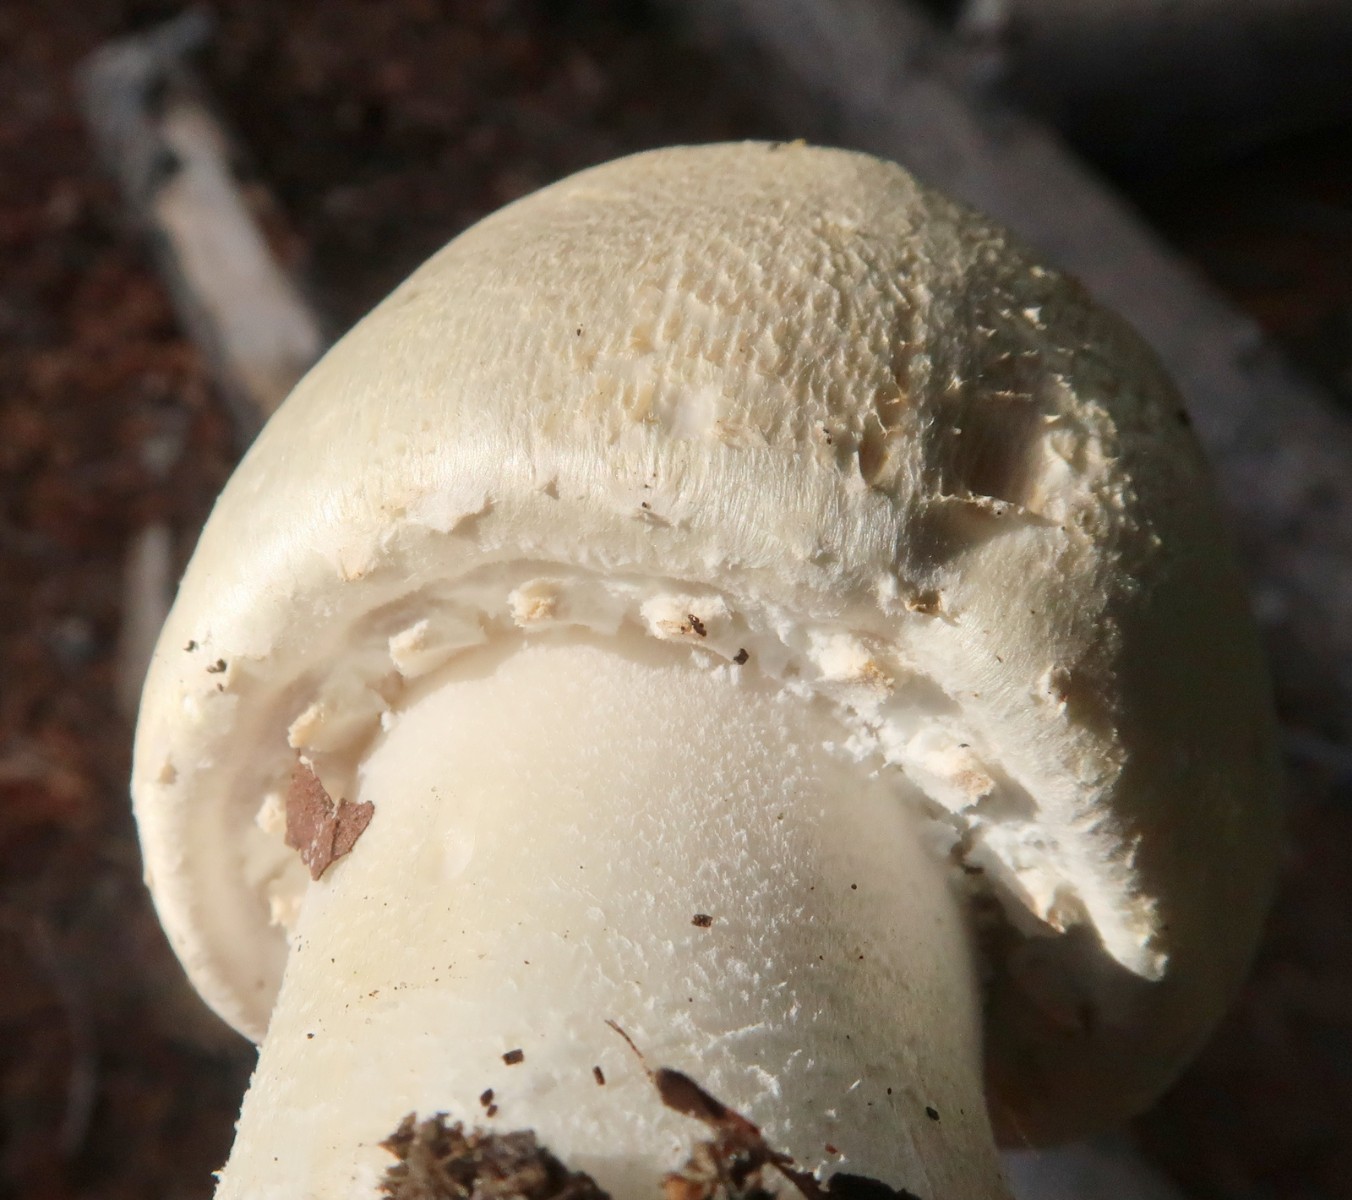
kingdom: Fungi
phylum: Basidiomycota
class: Agaricomycetes
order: Agaricales
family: Agaricaceae
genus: Agaricus
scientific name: Agaricus arvensis
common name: ager-champignon
